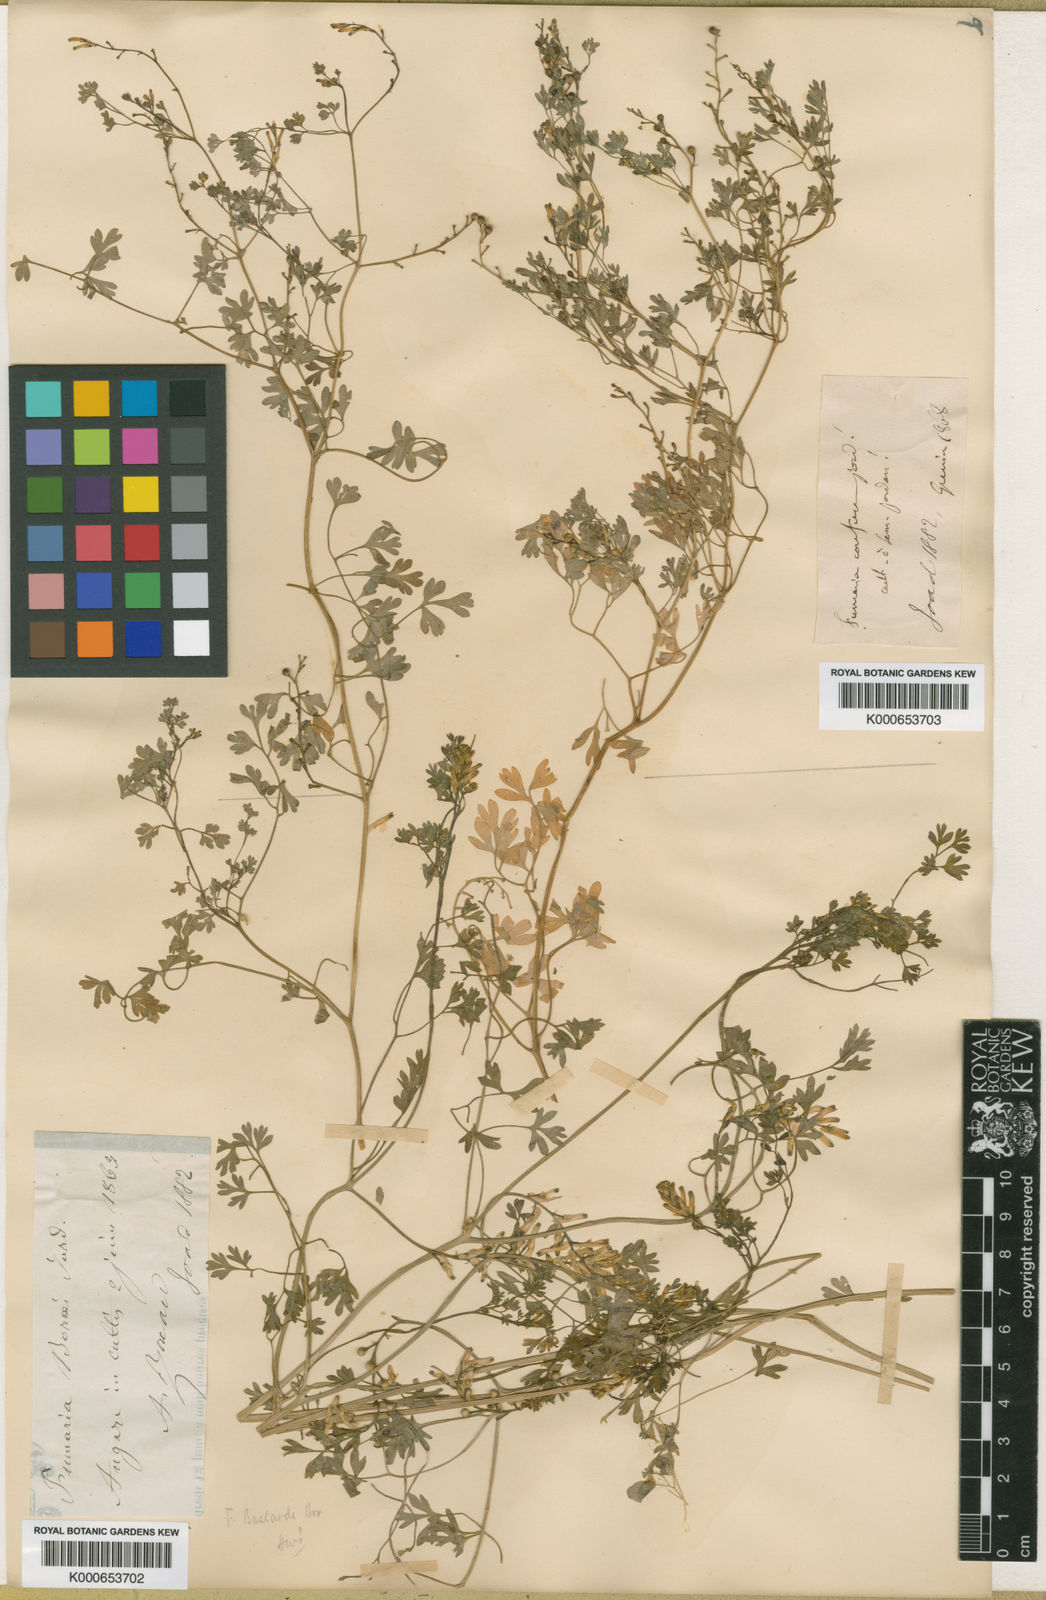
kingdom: Plantae
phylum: Tracheophyta
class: Magnoliopsida
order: Ranunculales
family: Papaveraceae
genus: Fumaria
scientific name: Fumaria bastardii
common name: Tall ramping-fumitory
